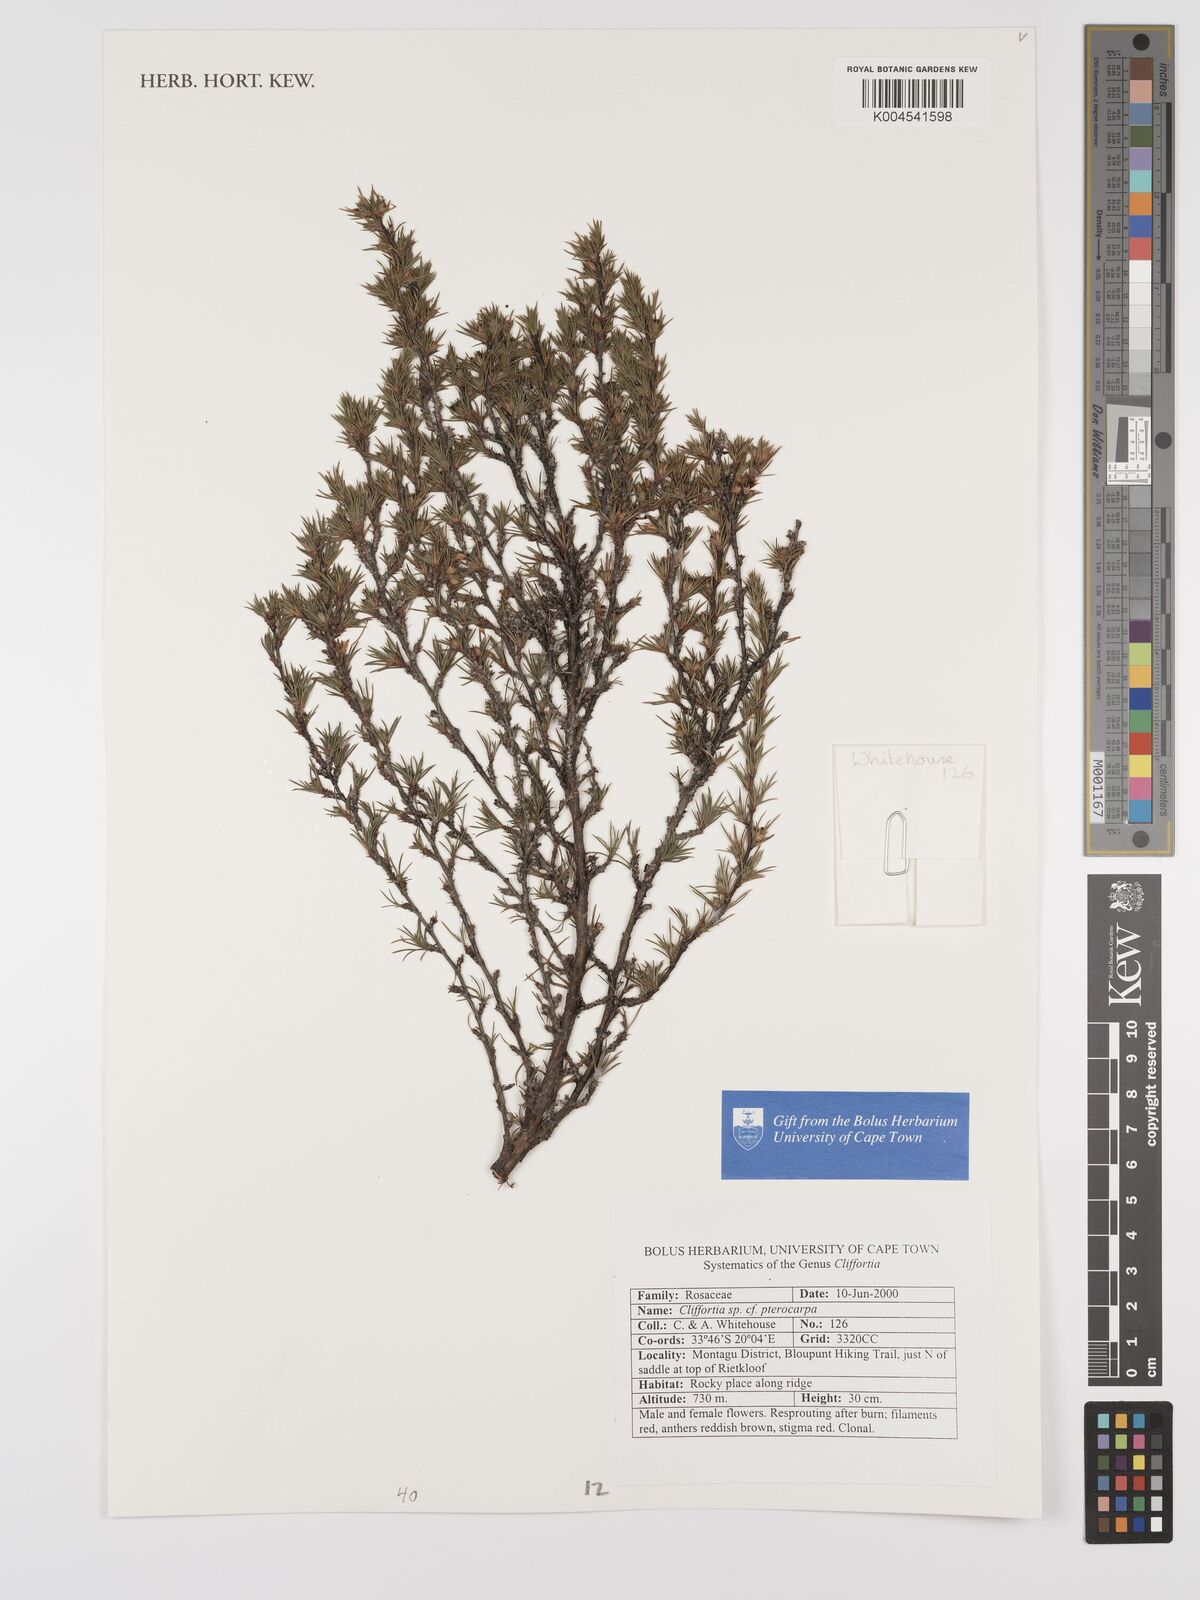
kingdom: Plantae
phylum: Tracheophyta
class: Magnoliopsida
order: Rosales
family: Rosaceae
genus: Cliffortia
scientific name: Cliffortia pterocarpa
